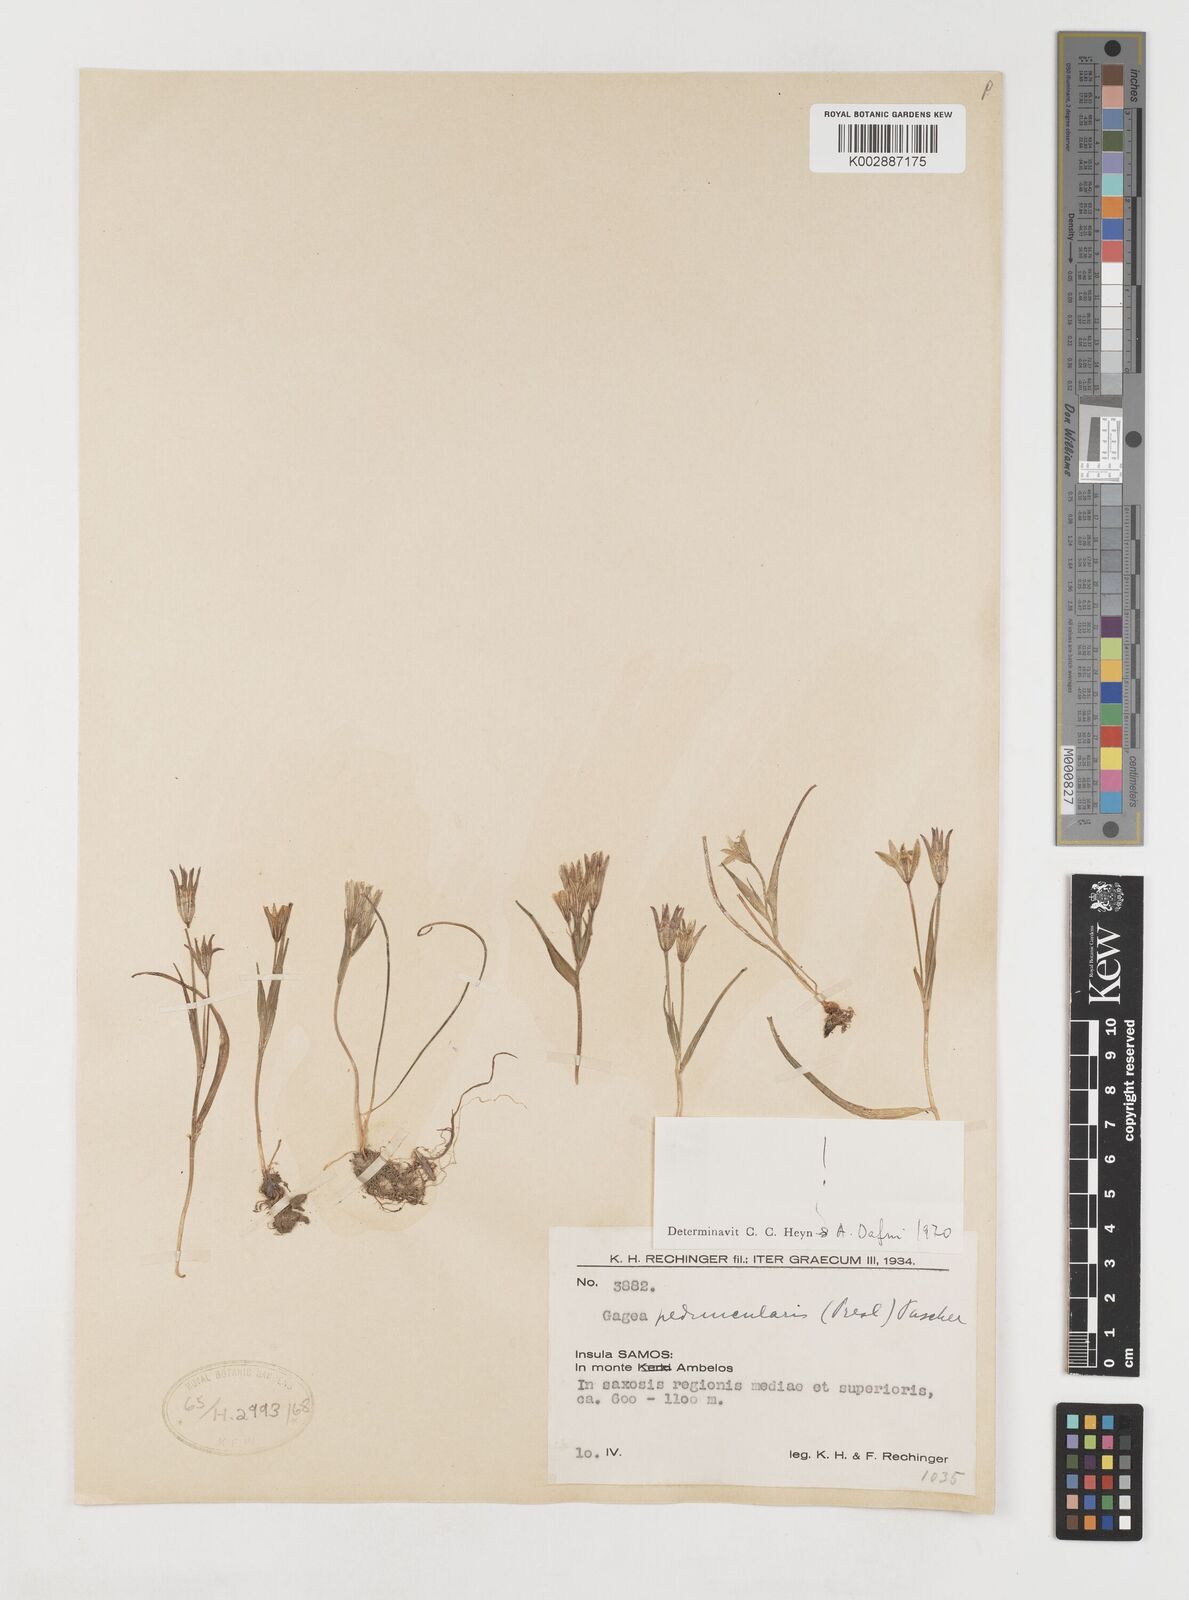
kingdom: Plantae
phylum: Tracheophyta
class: Liliopsida
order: Liliales
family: Liliaceae
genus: Gagea
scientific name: Gagea peduncularis
